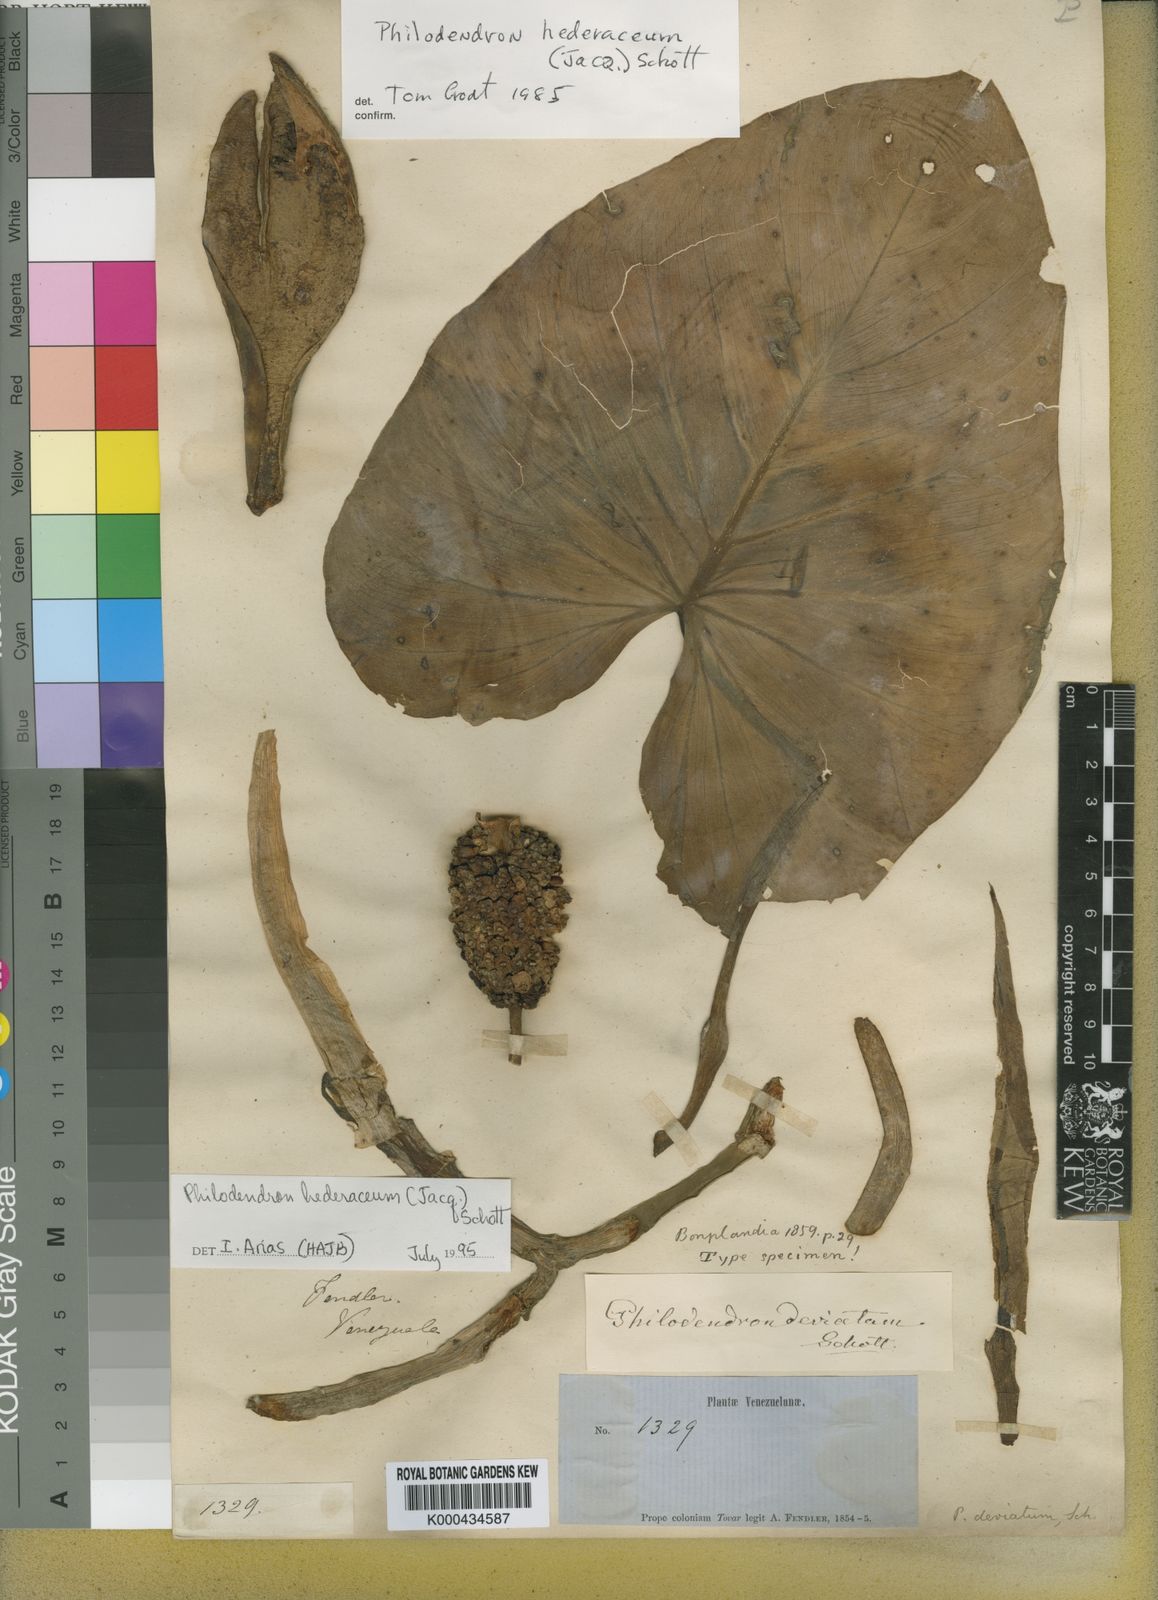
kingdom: Plantae
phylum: Tracheophyta
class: Liliopsida
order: Alismatales
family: Araceae
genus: Philodendron
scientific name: Philodendron hederaceum
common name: Vilevine
